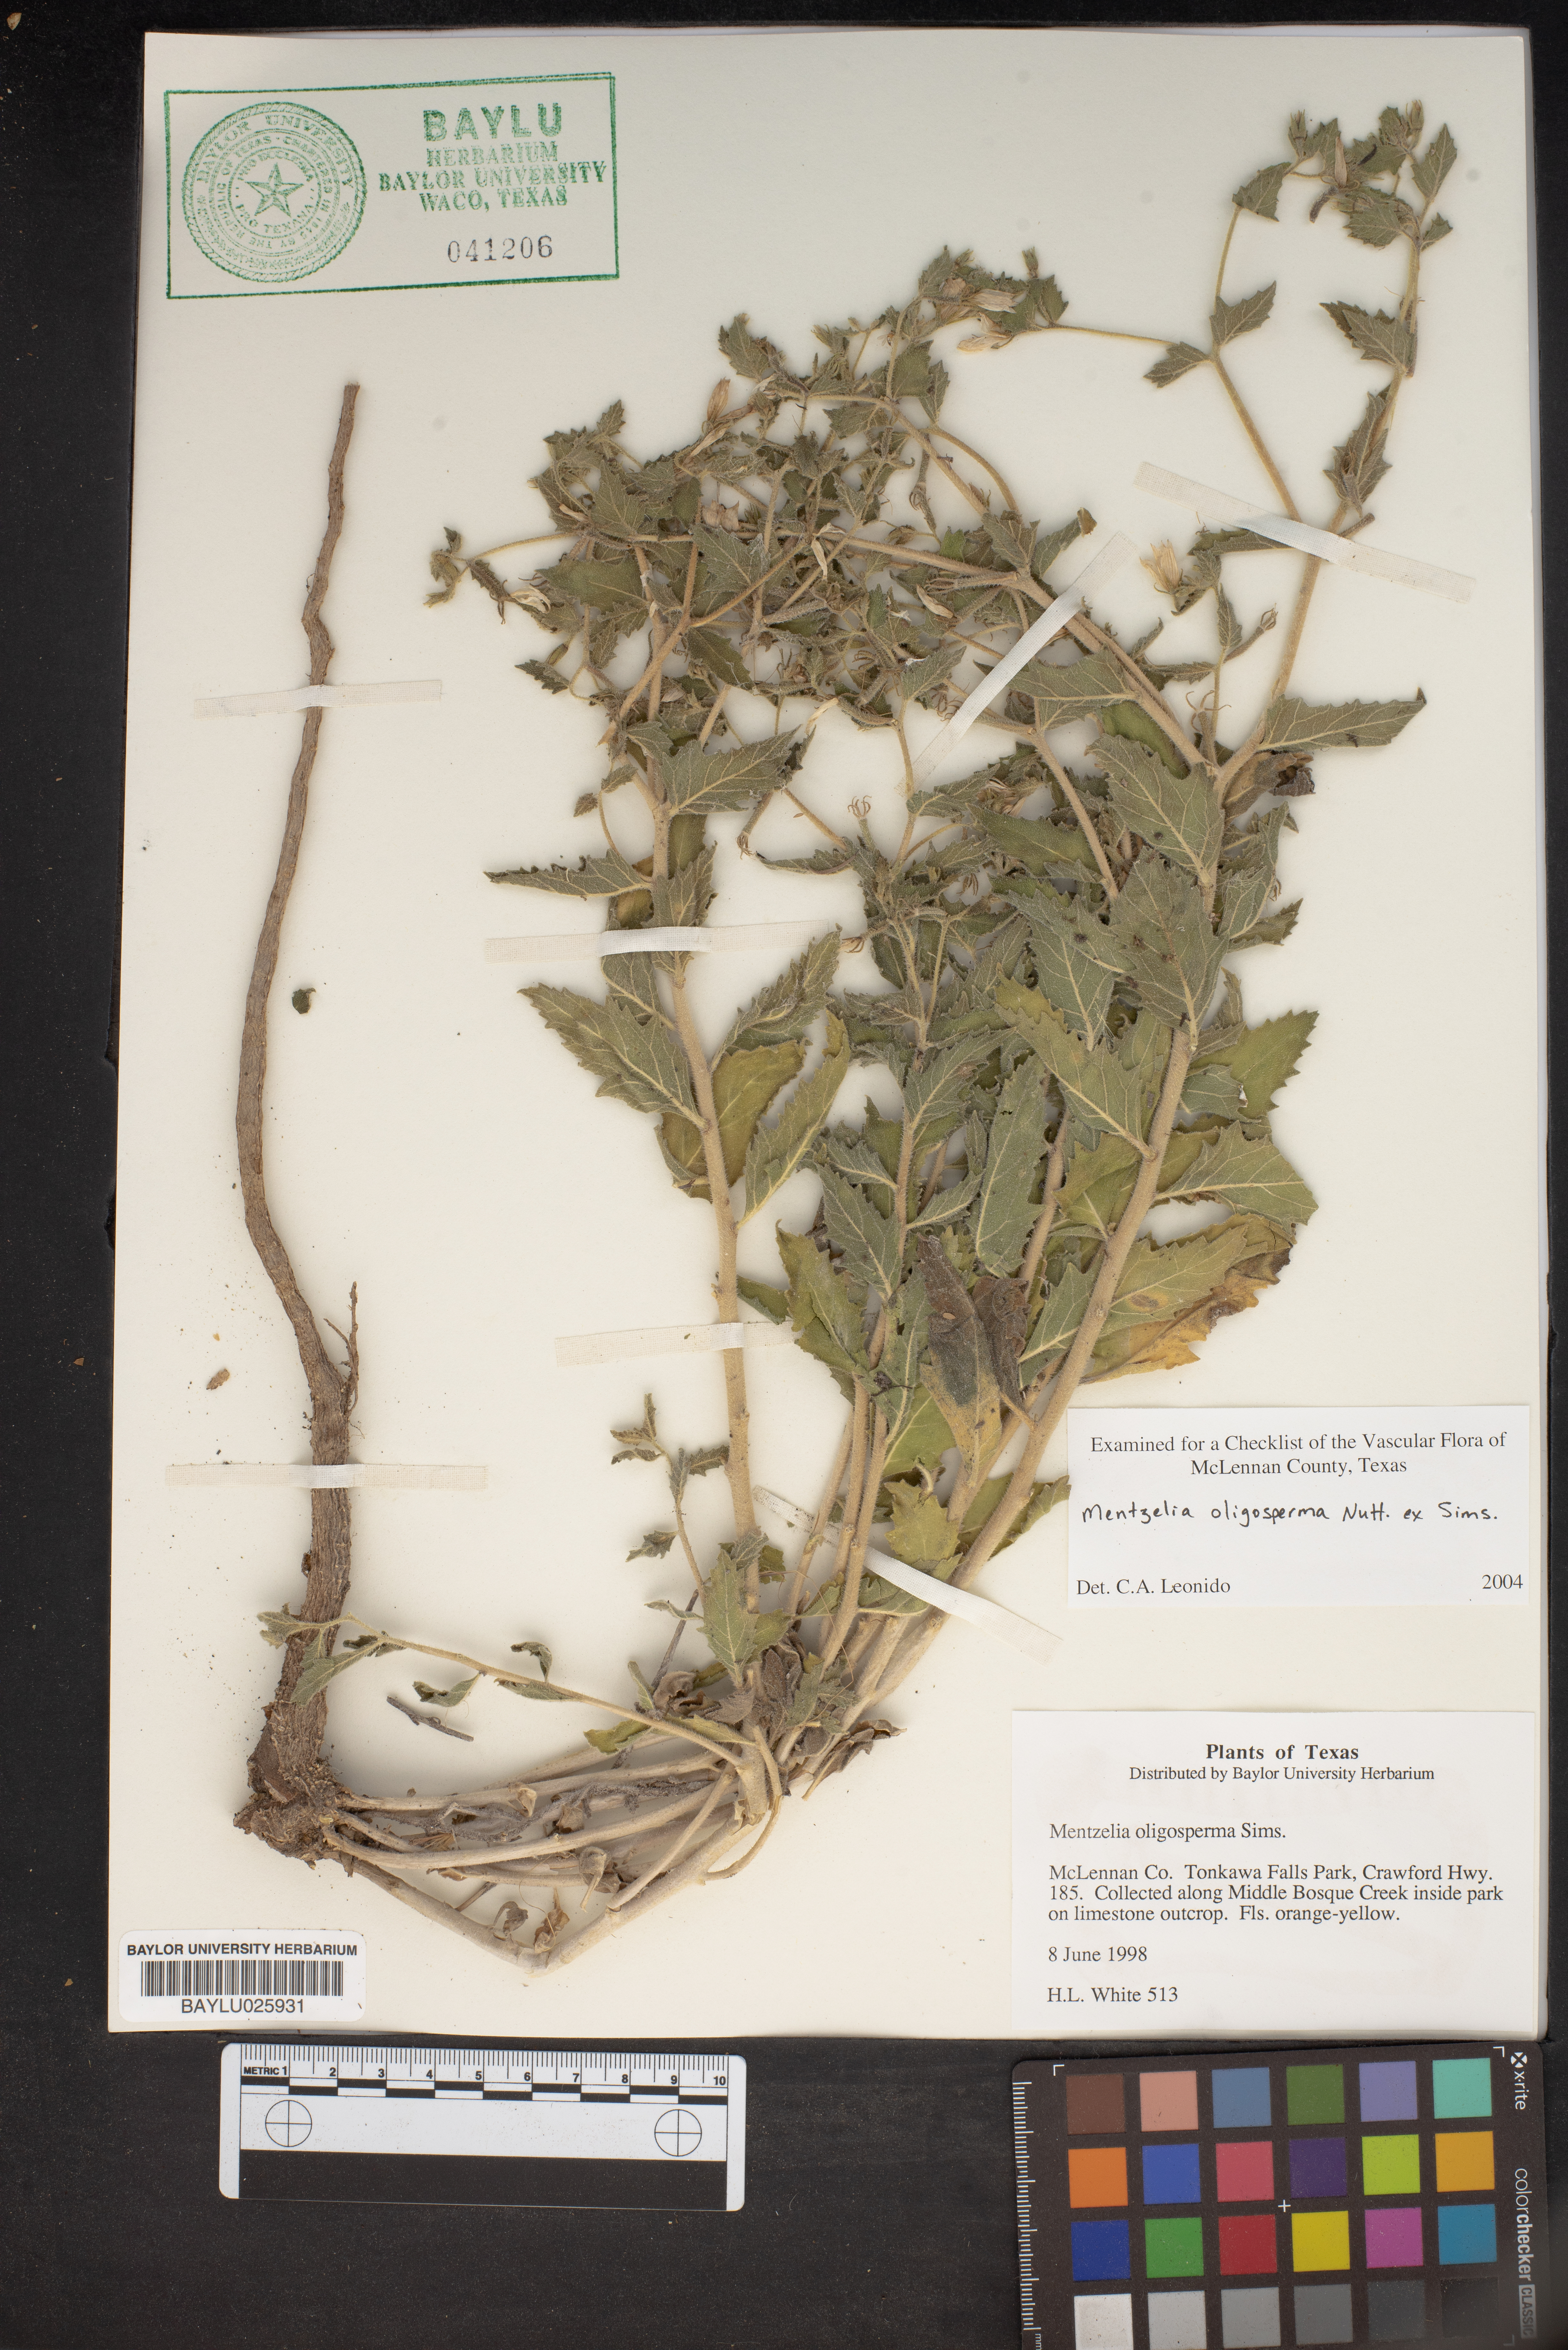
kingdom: Plantae
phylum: Tracheophyta
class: Magnoliopsida
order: Cornales
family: Loasaceae
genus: Mentzelia
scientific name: Mentzelia oligosperma
